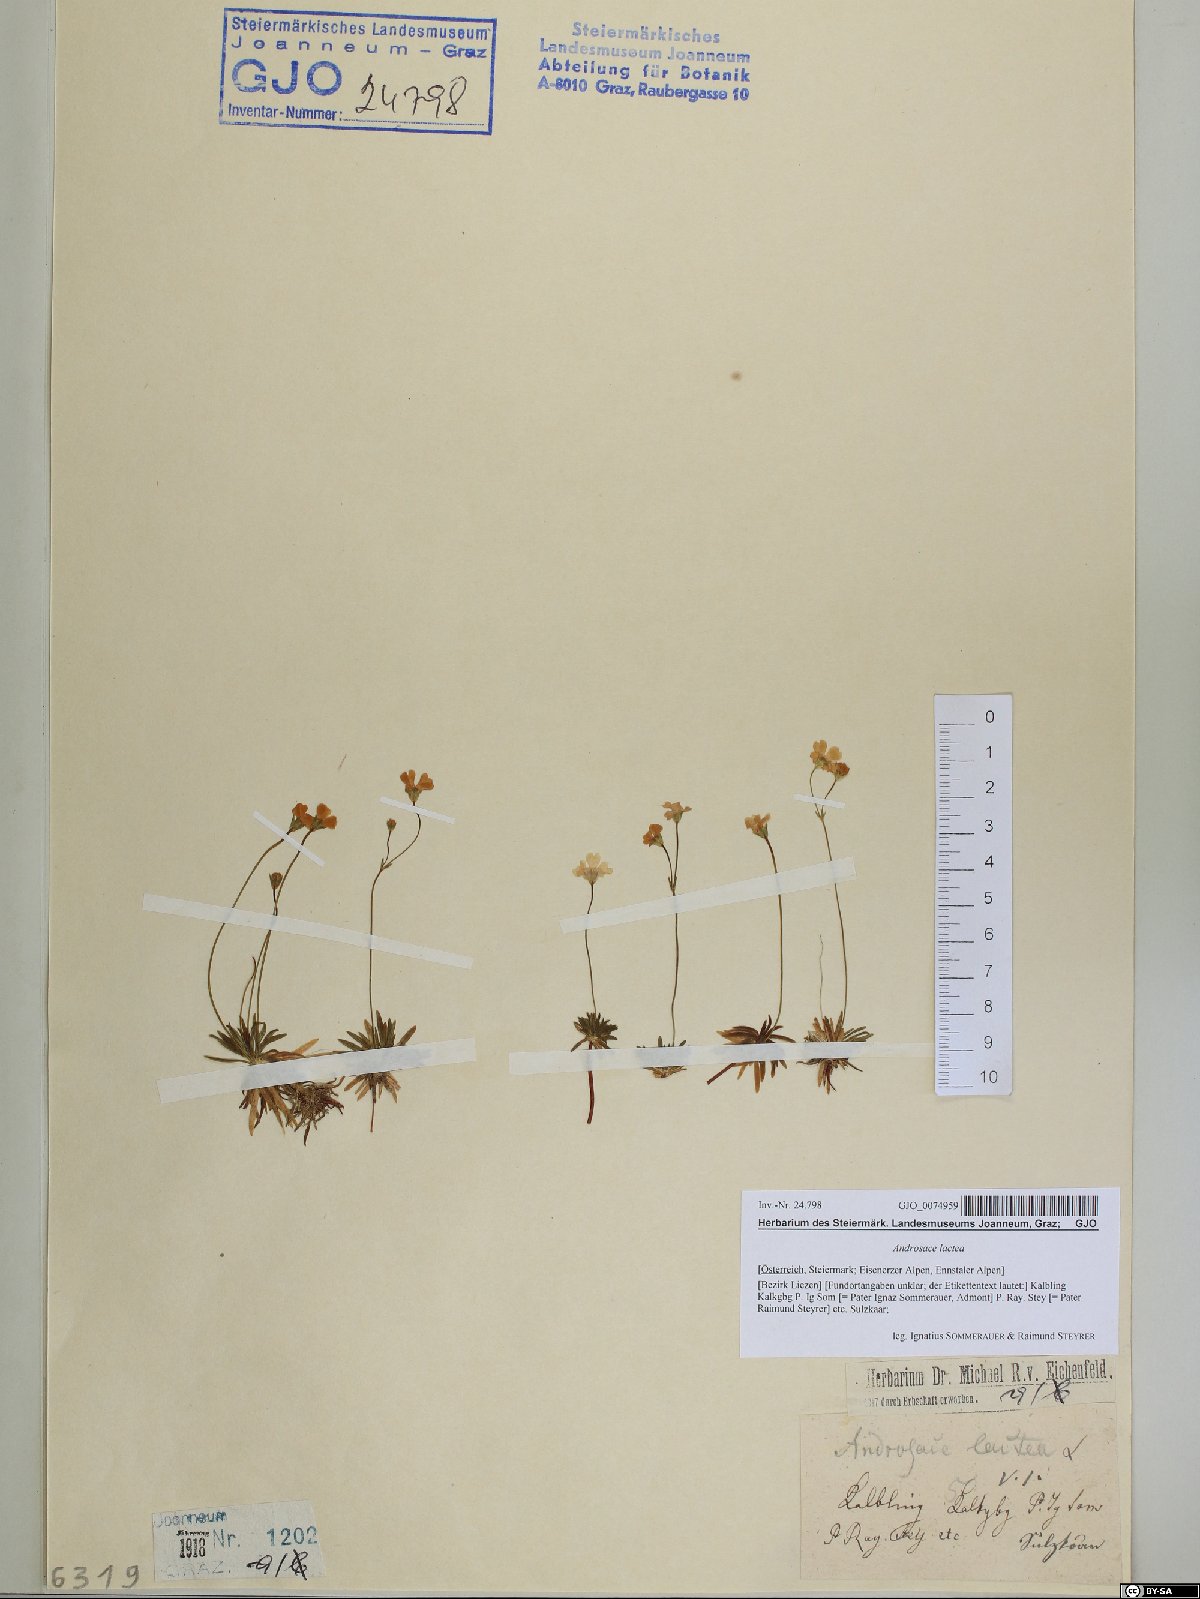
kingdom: Plantae
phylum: Tracheophyta
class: Magnoliopsida
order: Ericales
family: Primulaceae
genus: Androsace
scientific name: Androsace lactea
